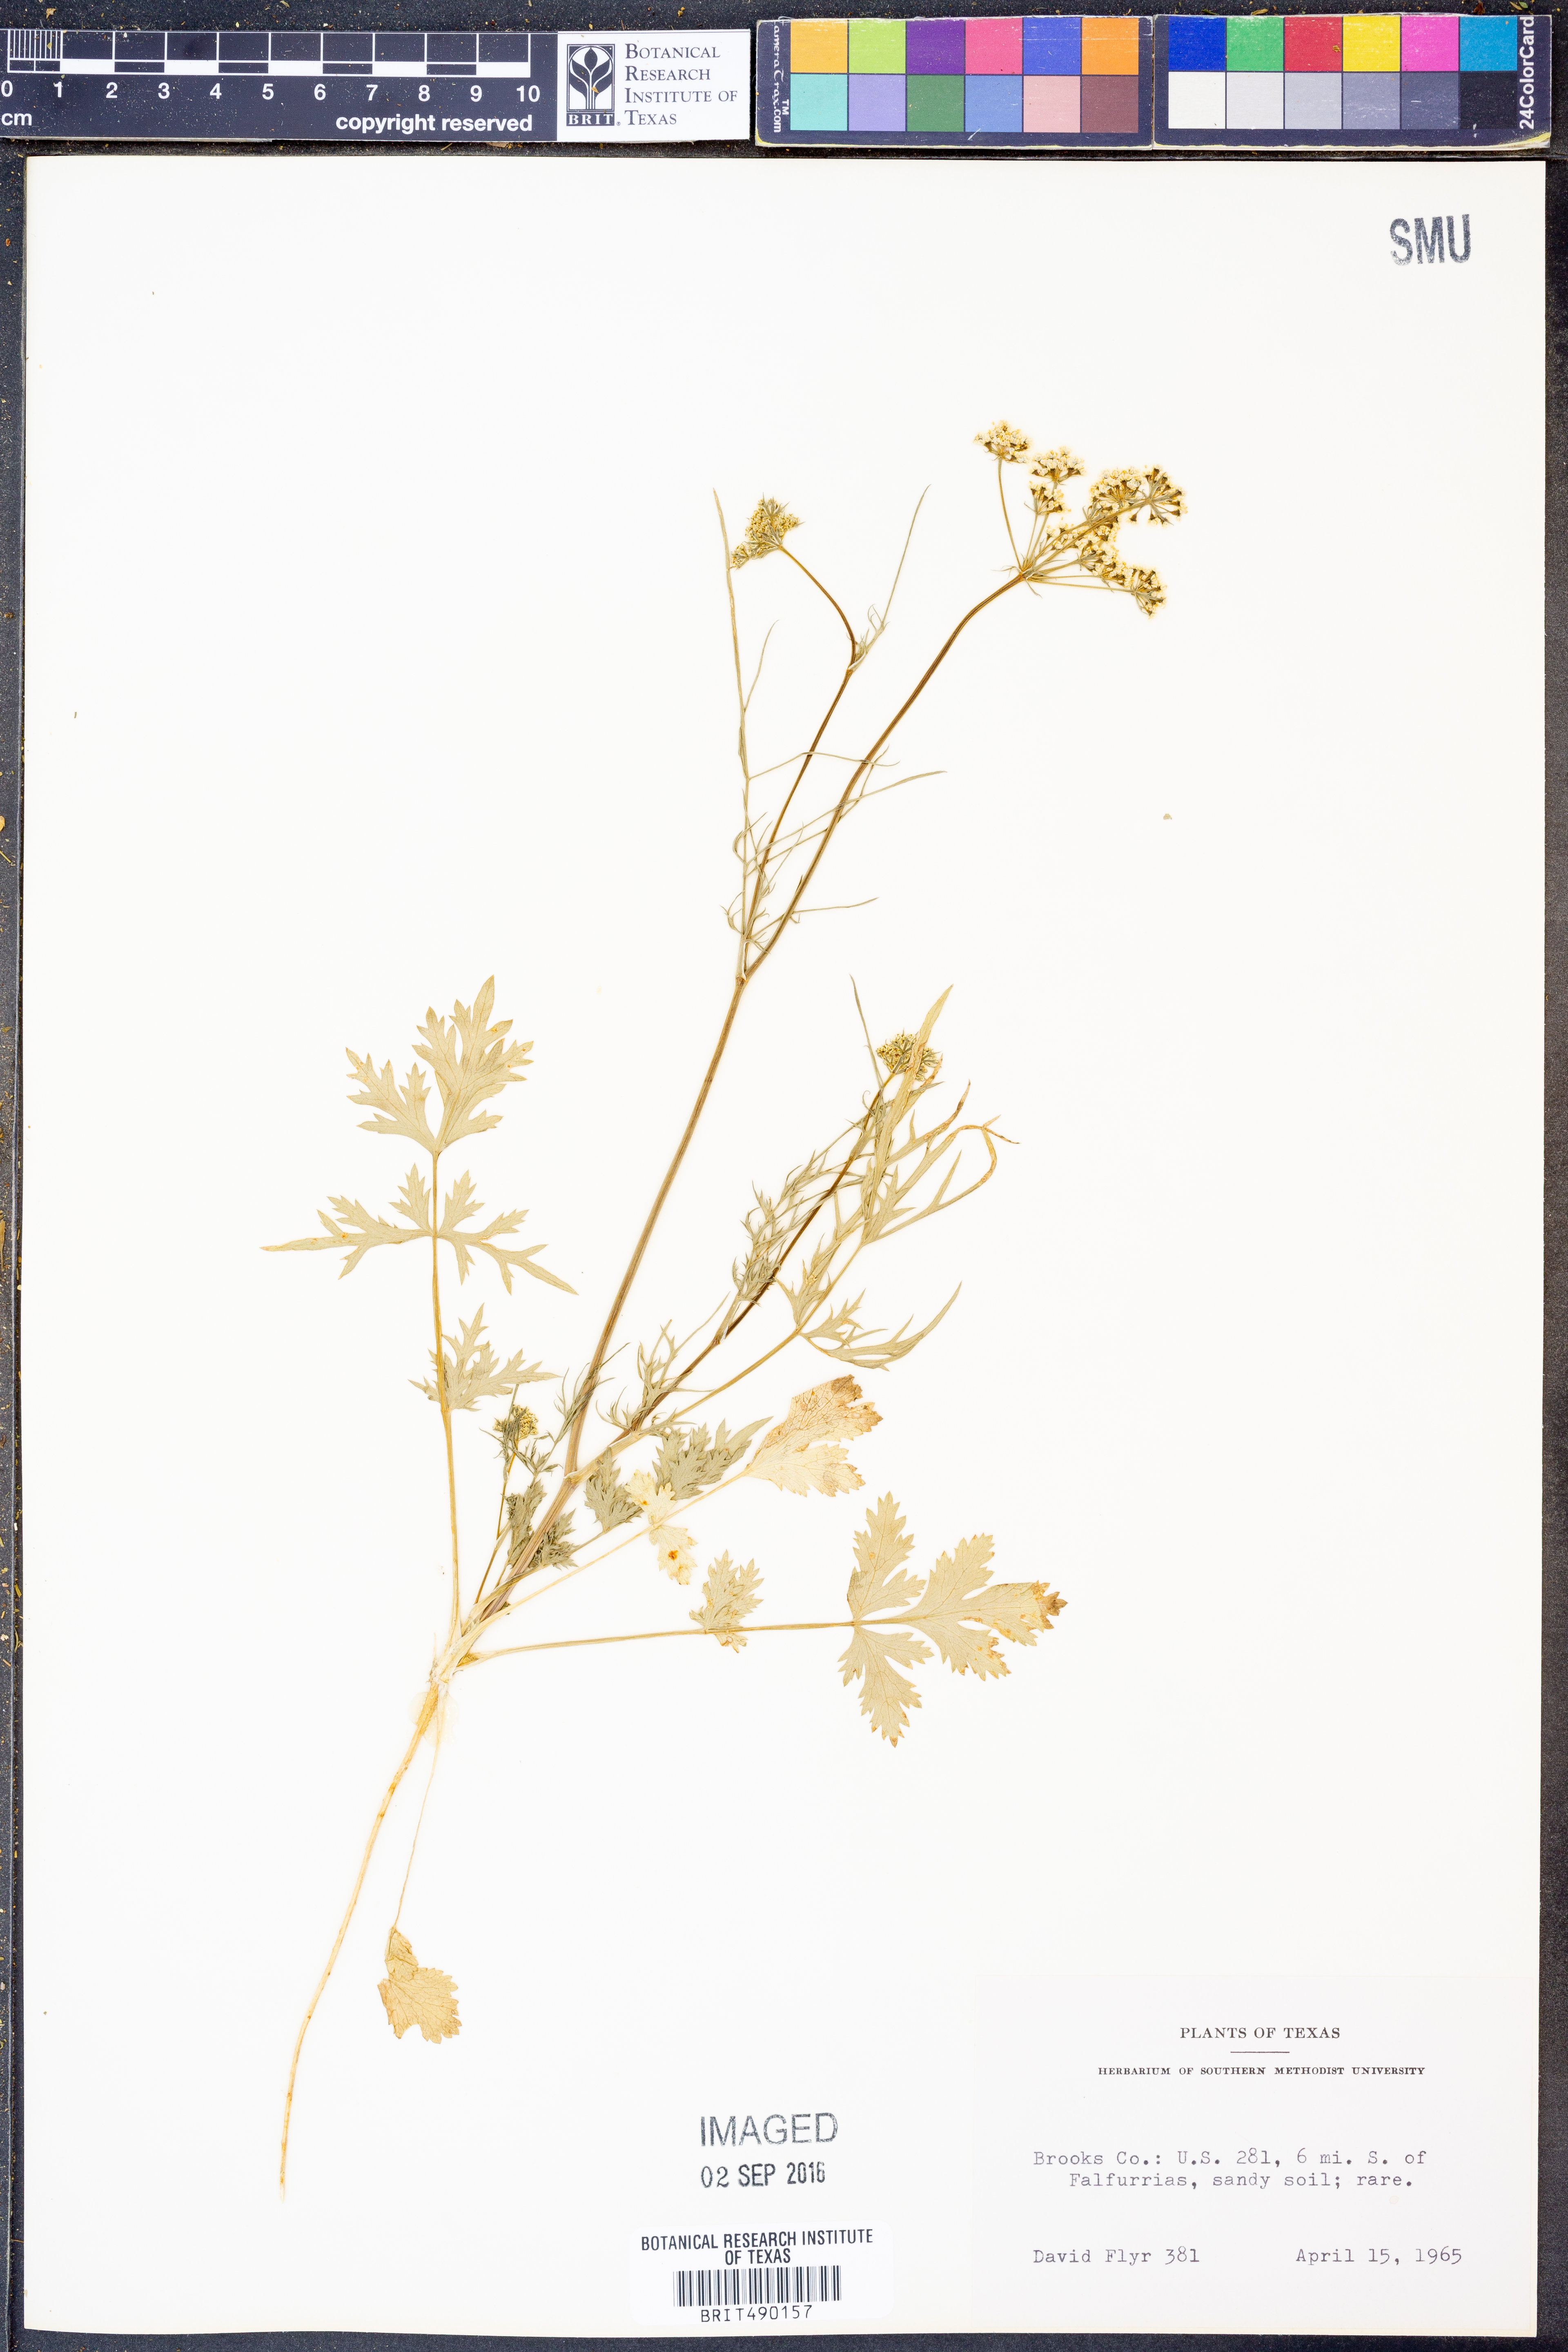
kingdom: Plantae
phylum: Tracheophyta
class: Magnoliopsida
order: Apiales
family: Apiaceae
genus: Coriandrum
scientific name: Coriandrum sativum
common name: Coriander
